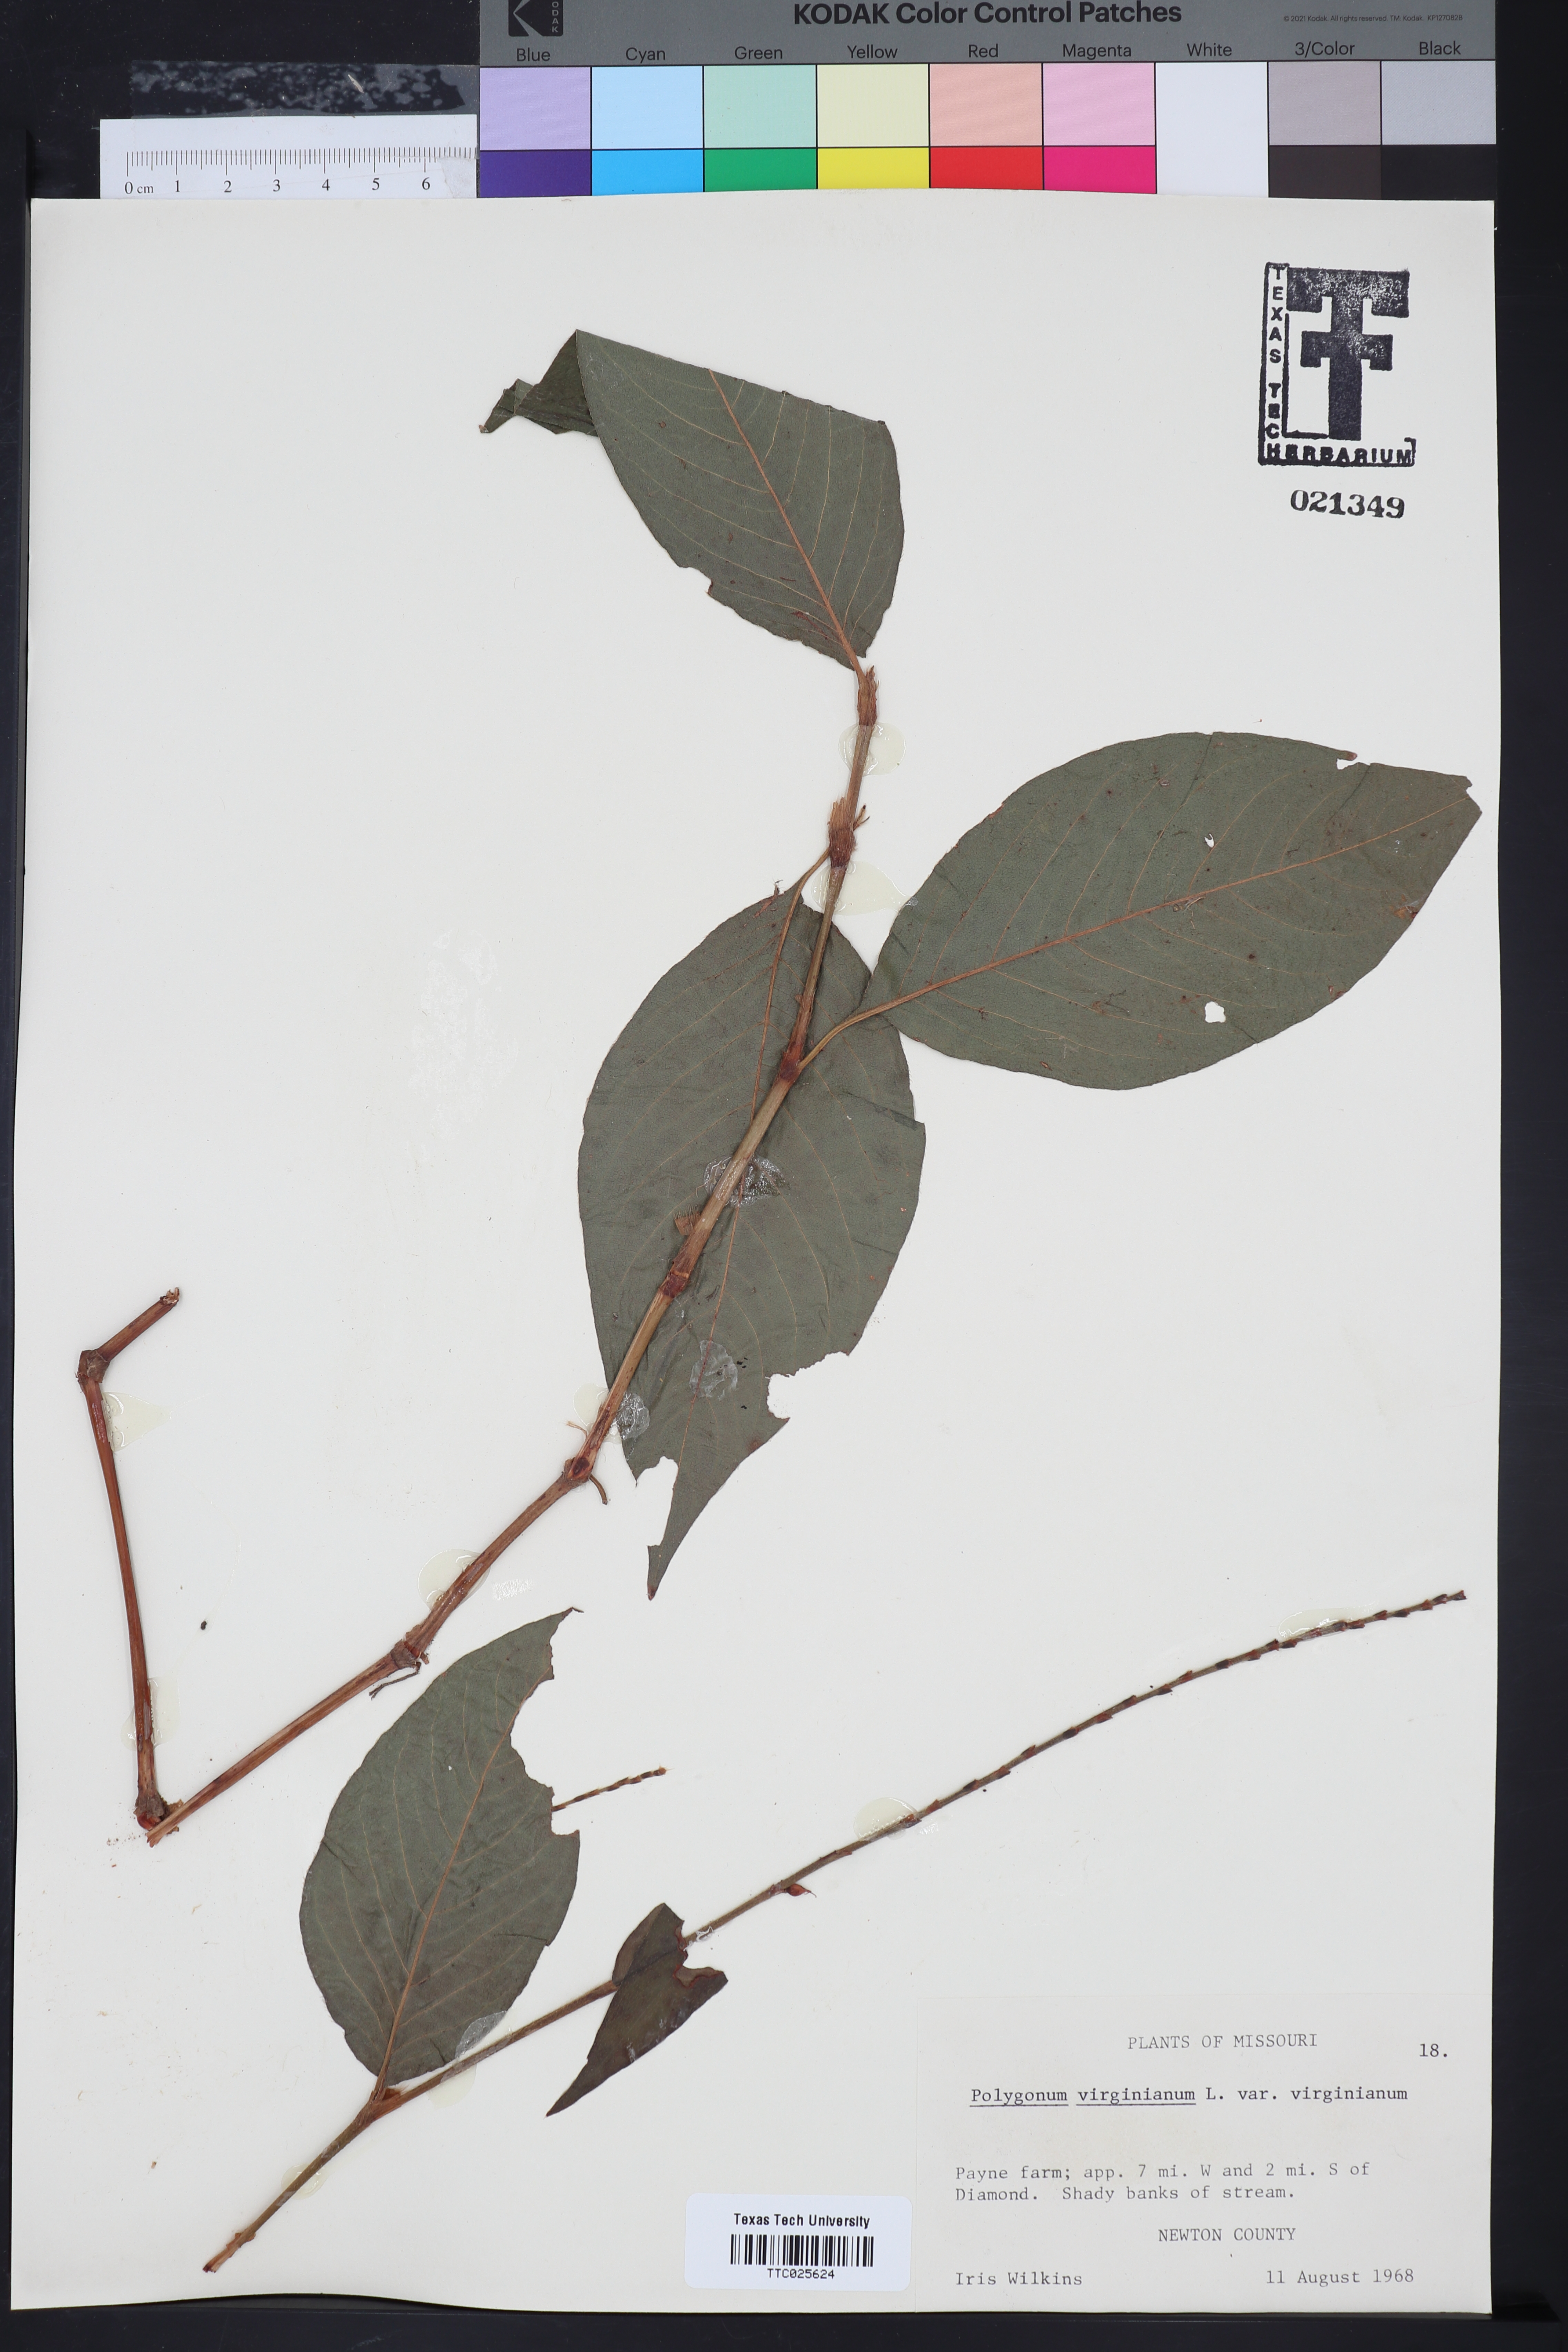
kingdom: Plantae
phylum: Tracheophyta
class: Magnoliopsida
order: Caryophyllales
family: Polygonaceae
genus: Persicaria
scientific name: Persicaria virginiana
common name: Jumpseed
